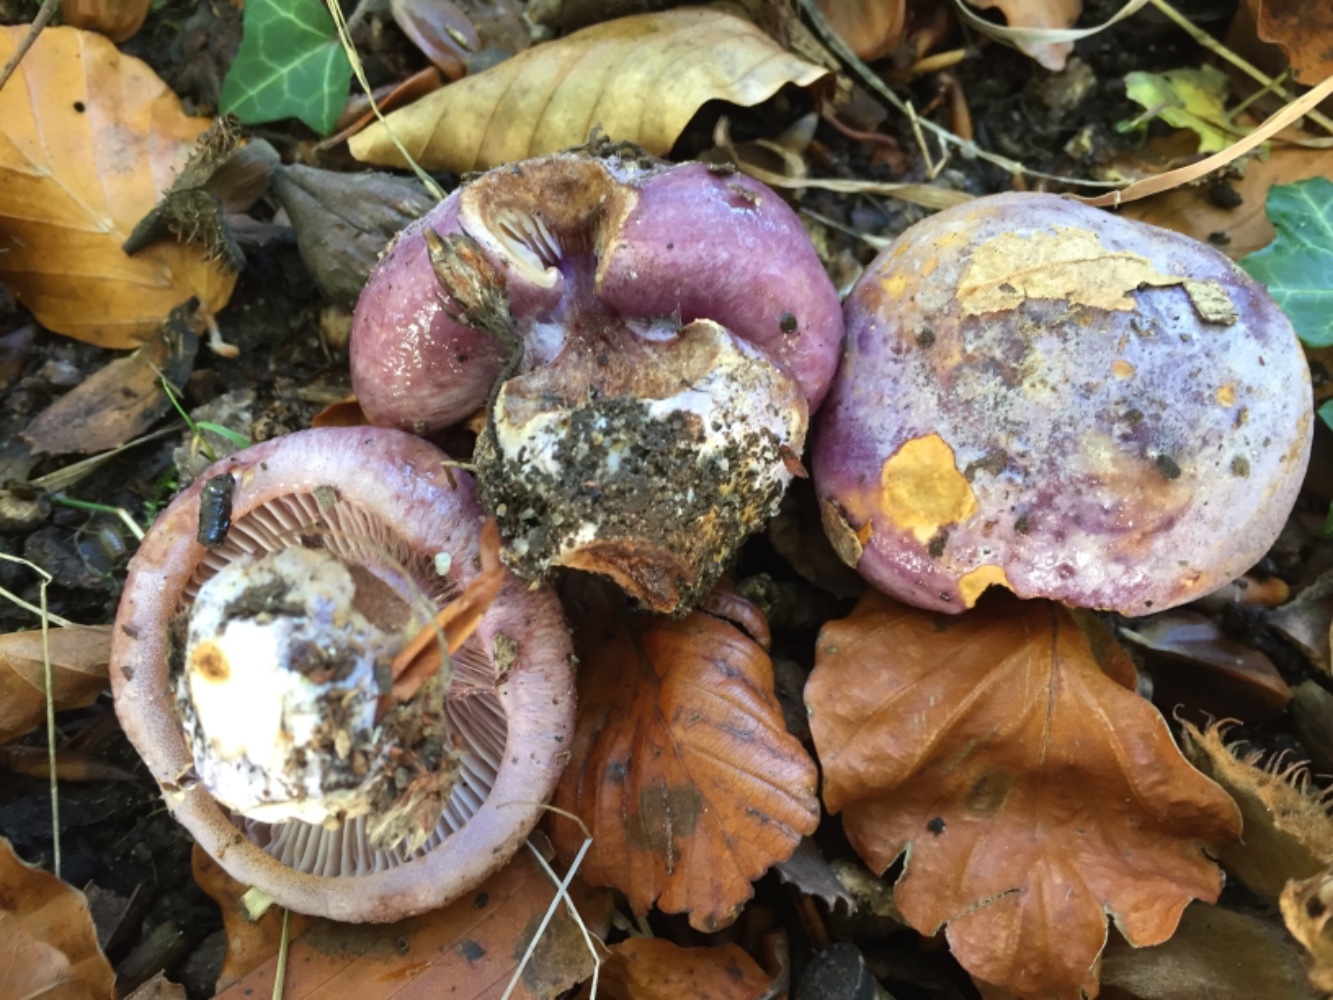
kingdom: Fungi
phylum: Basidiomycota
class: Agaricomycetes
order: Agaricales
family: Cortinariaceae
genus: Calonarius
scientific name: Calonarius
